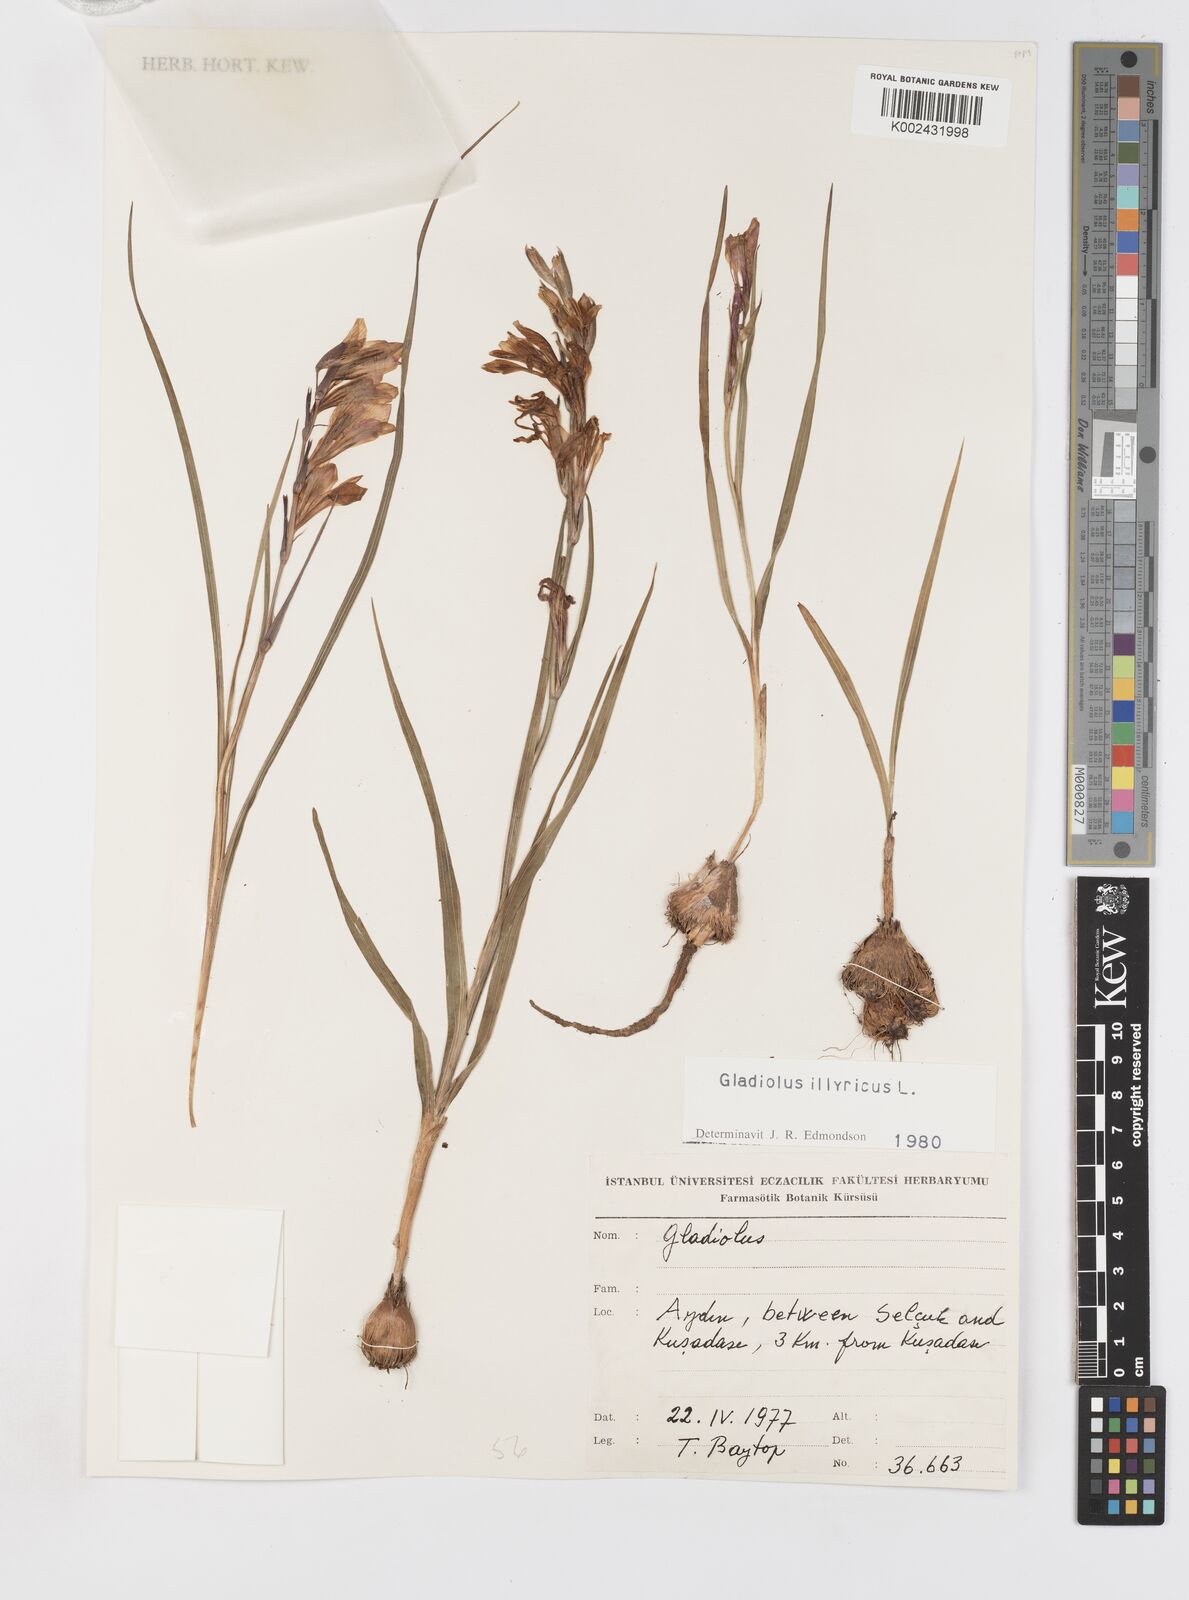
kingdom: Plantae
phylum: Tracheophyta
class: Liliopsida
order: Asparagales
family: Iridaceae
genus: Gladiolus
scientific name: Gladiolus illyricus
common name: Wild gladiolus
